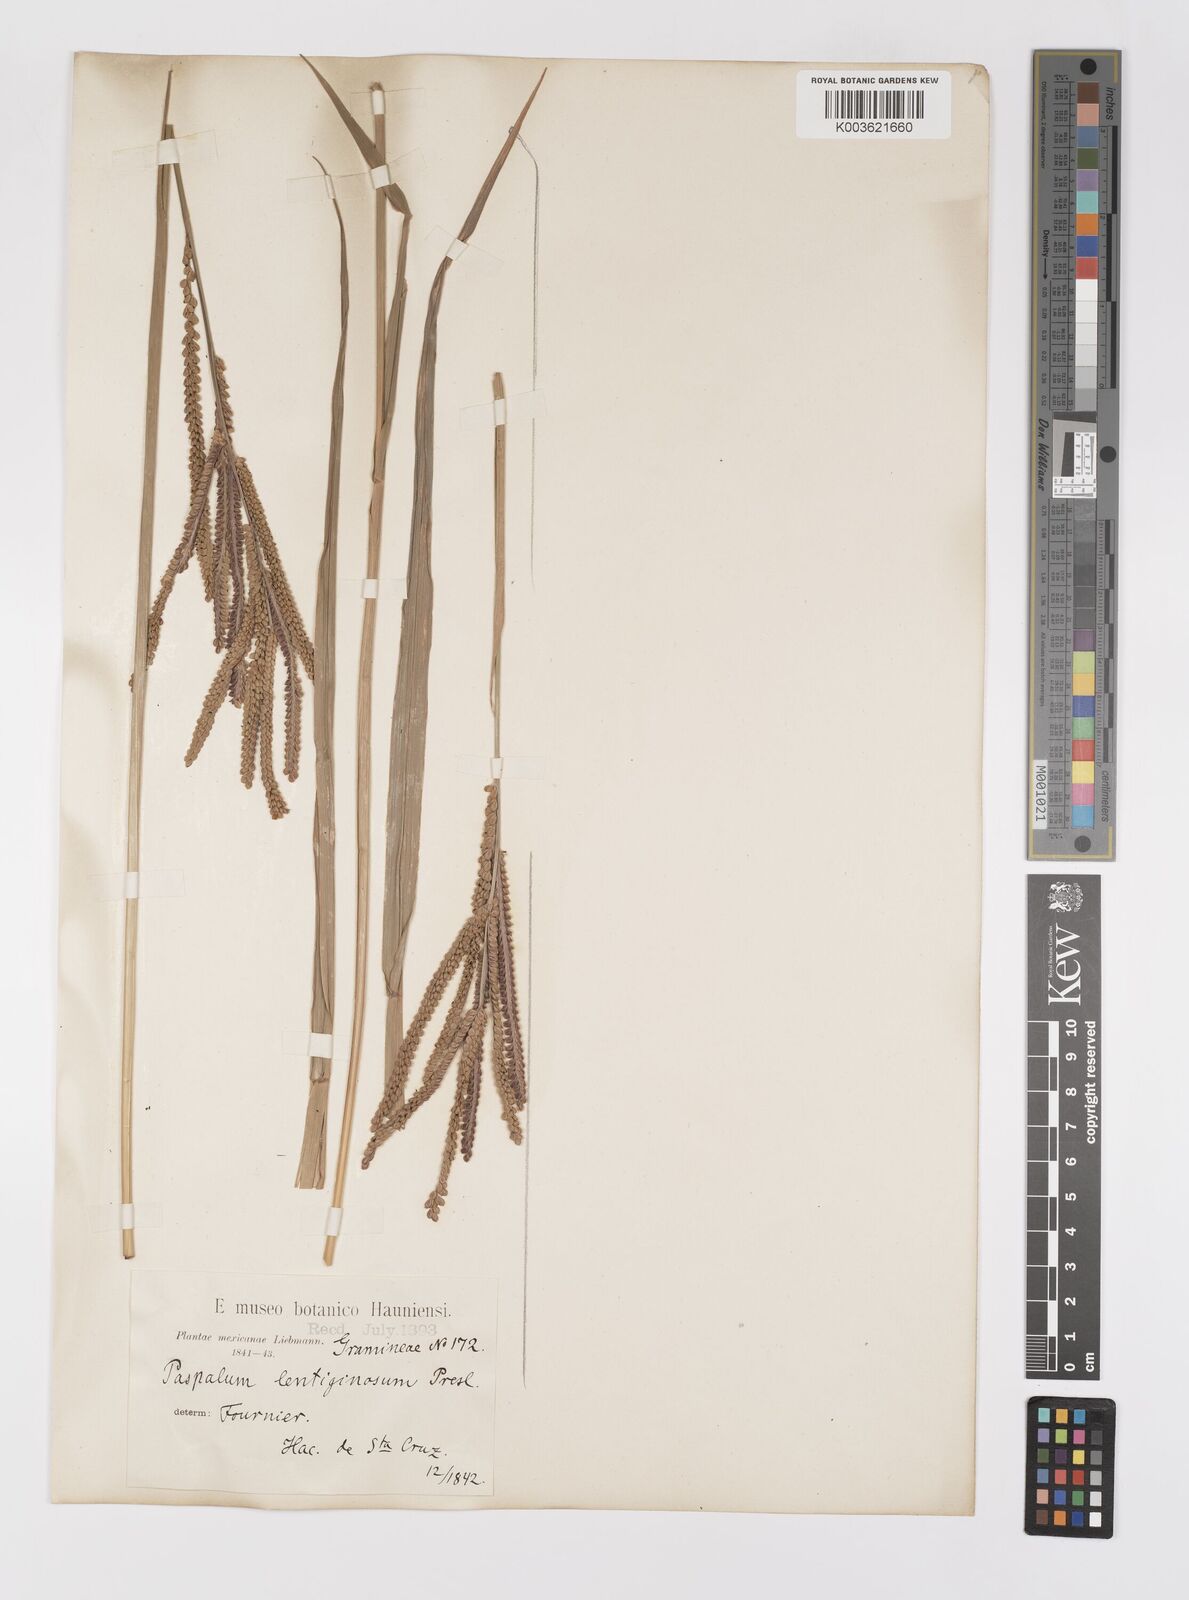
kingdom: Plantae
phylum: Tracheophyta
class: Liliopsida
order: Poales
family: Poaceae
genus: Paspalum
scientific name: Paspalum virgatum
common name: Talquezal
